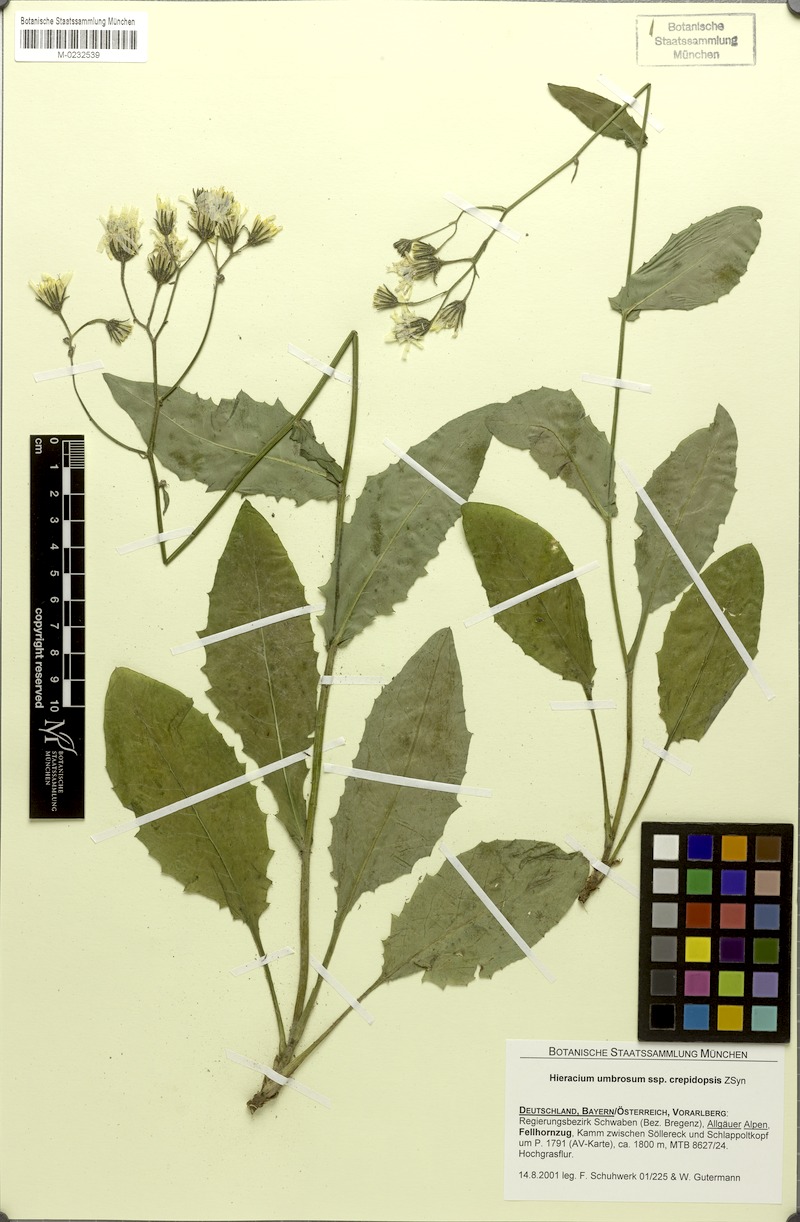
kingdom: Plantae
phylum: Tracheophyta
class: Magnoliopsida
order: Asterales
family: Asteraceae
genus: Hieracium
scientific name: Hieracium umbrosum
